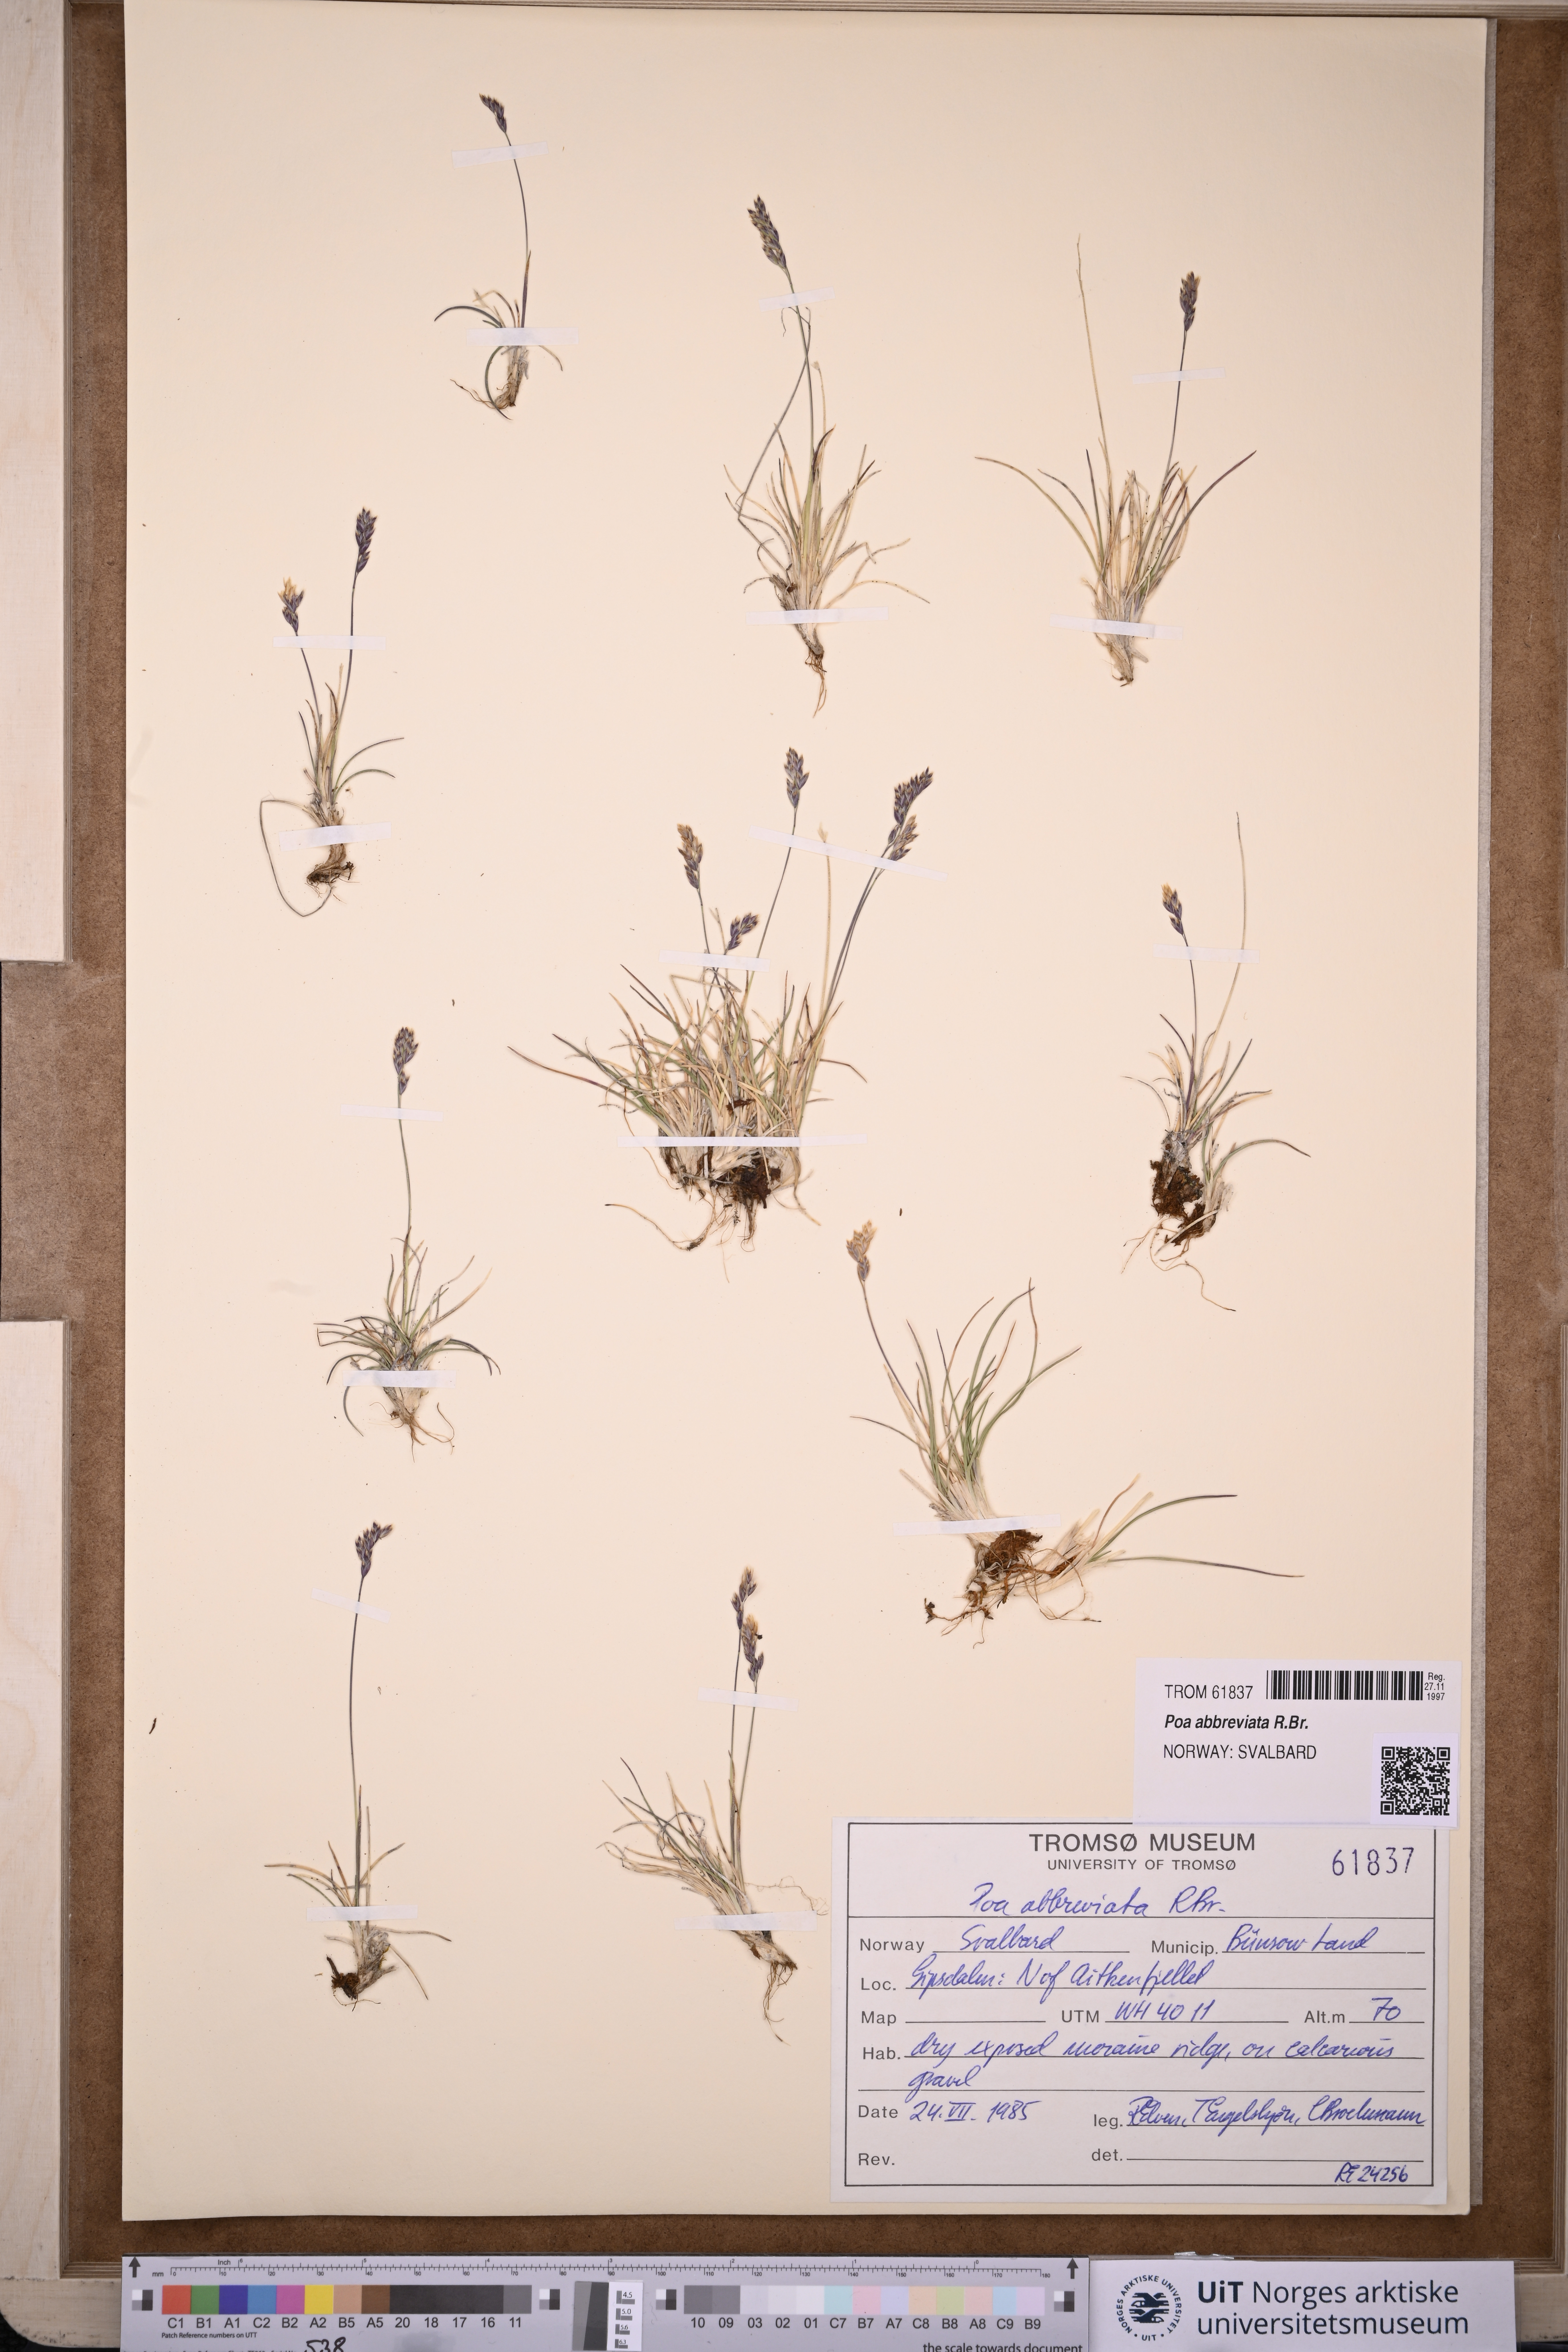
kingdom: Plantae
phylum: Tracheophyta
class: Liliopsida
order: Poales
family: Poaceae
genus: Poa
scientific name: Poa abbreviata
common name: Abbreviated bluegrass
